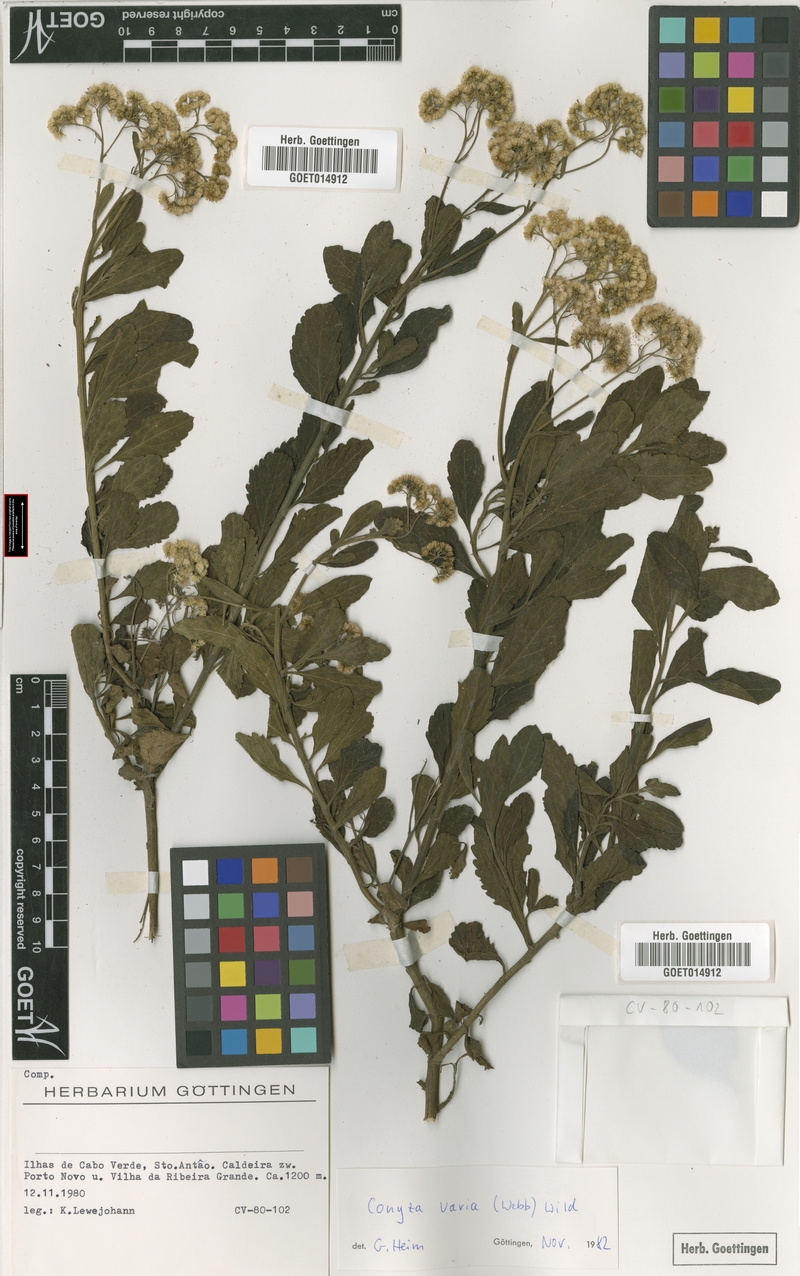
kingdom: Plantae
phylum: Tracheophyta
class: Magnoliopsida
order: Asterales
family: Asteraceae
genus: Nidorella
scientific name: Nidorella varia
